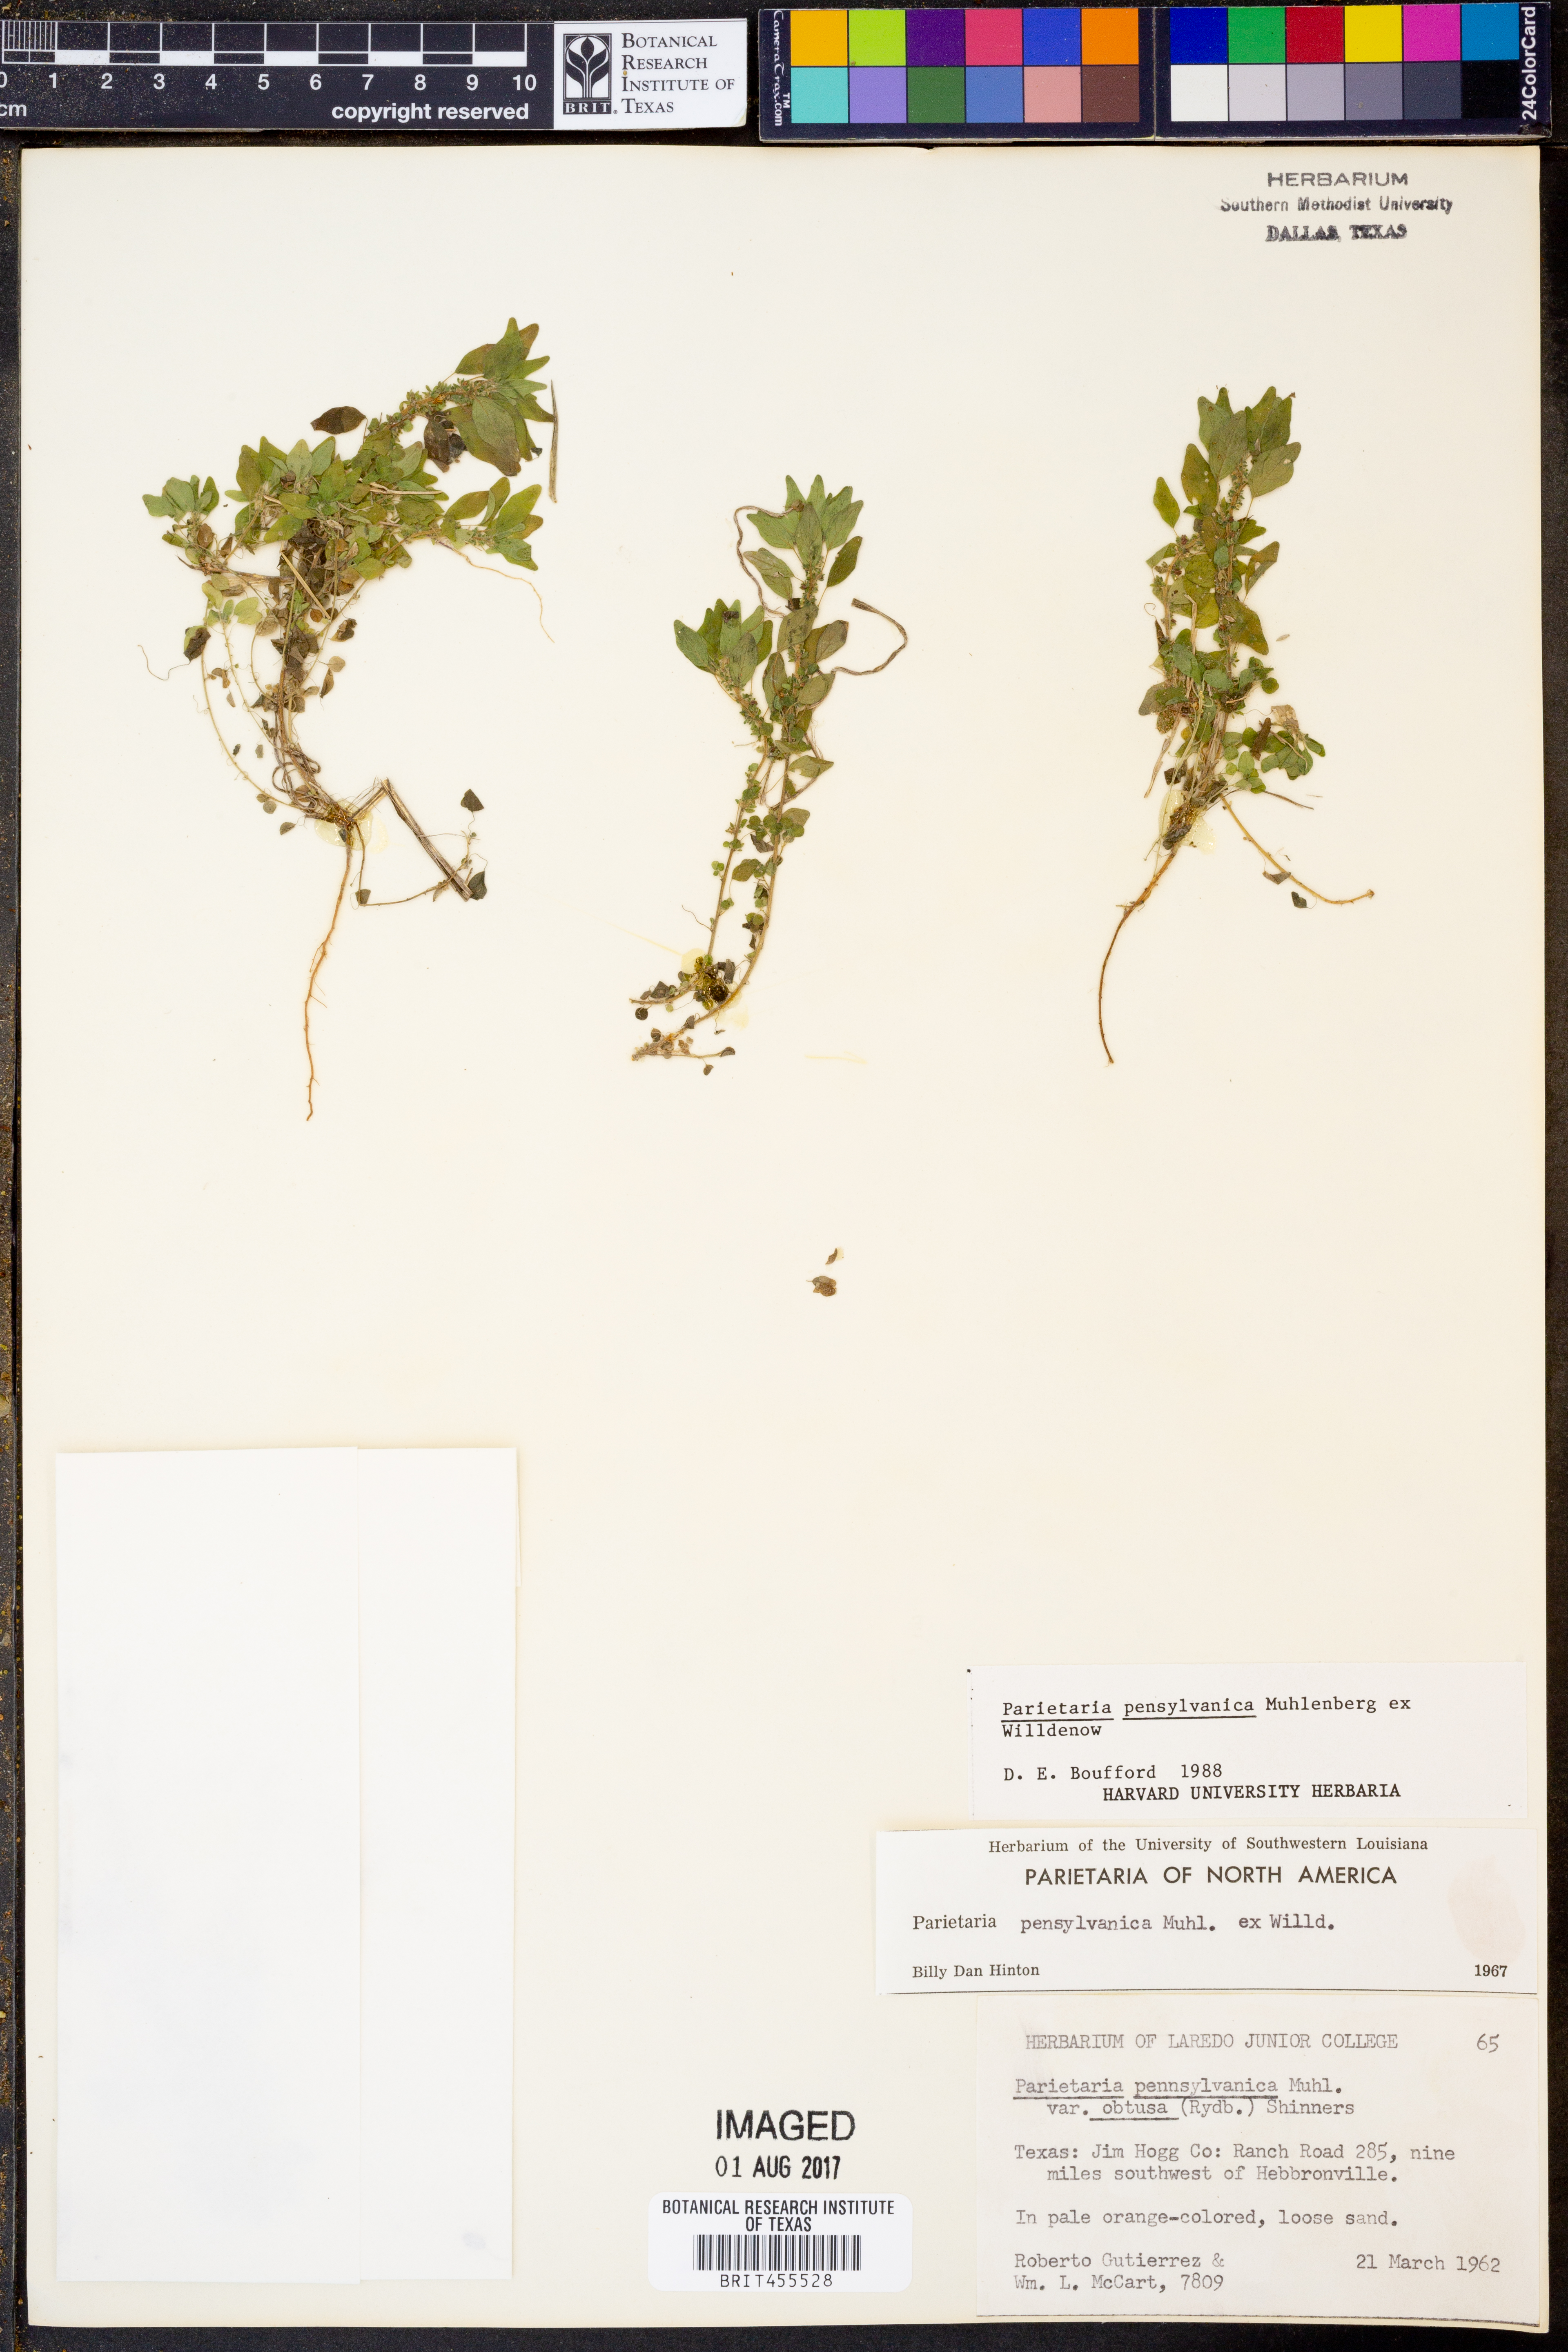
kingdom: Plantae
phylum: Tracheophyta
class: Magnoliopsida
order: Rosales
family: Urticaceae
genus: Parietaria
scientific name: Parietaria pensylvanica
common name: Pennsylvania pellitory
